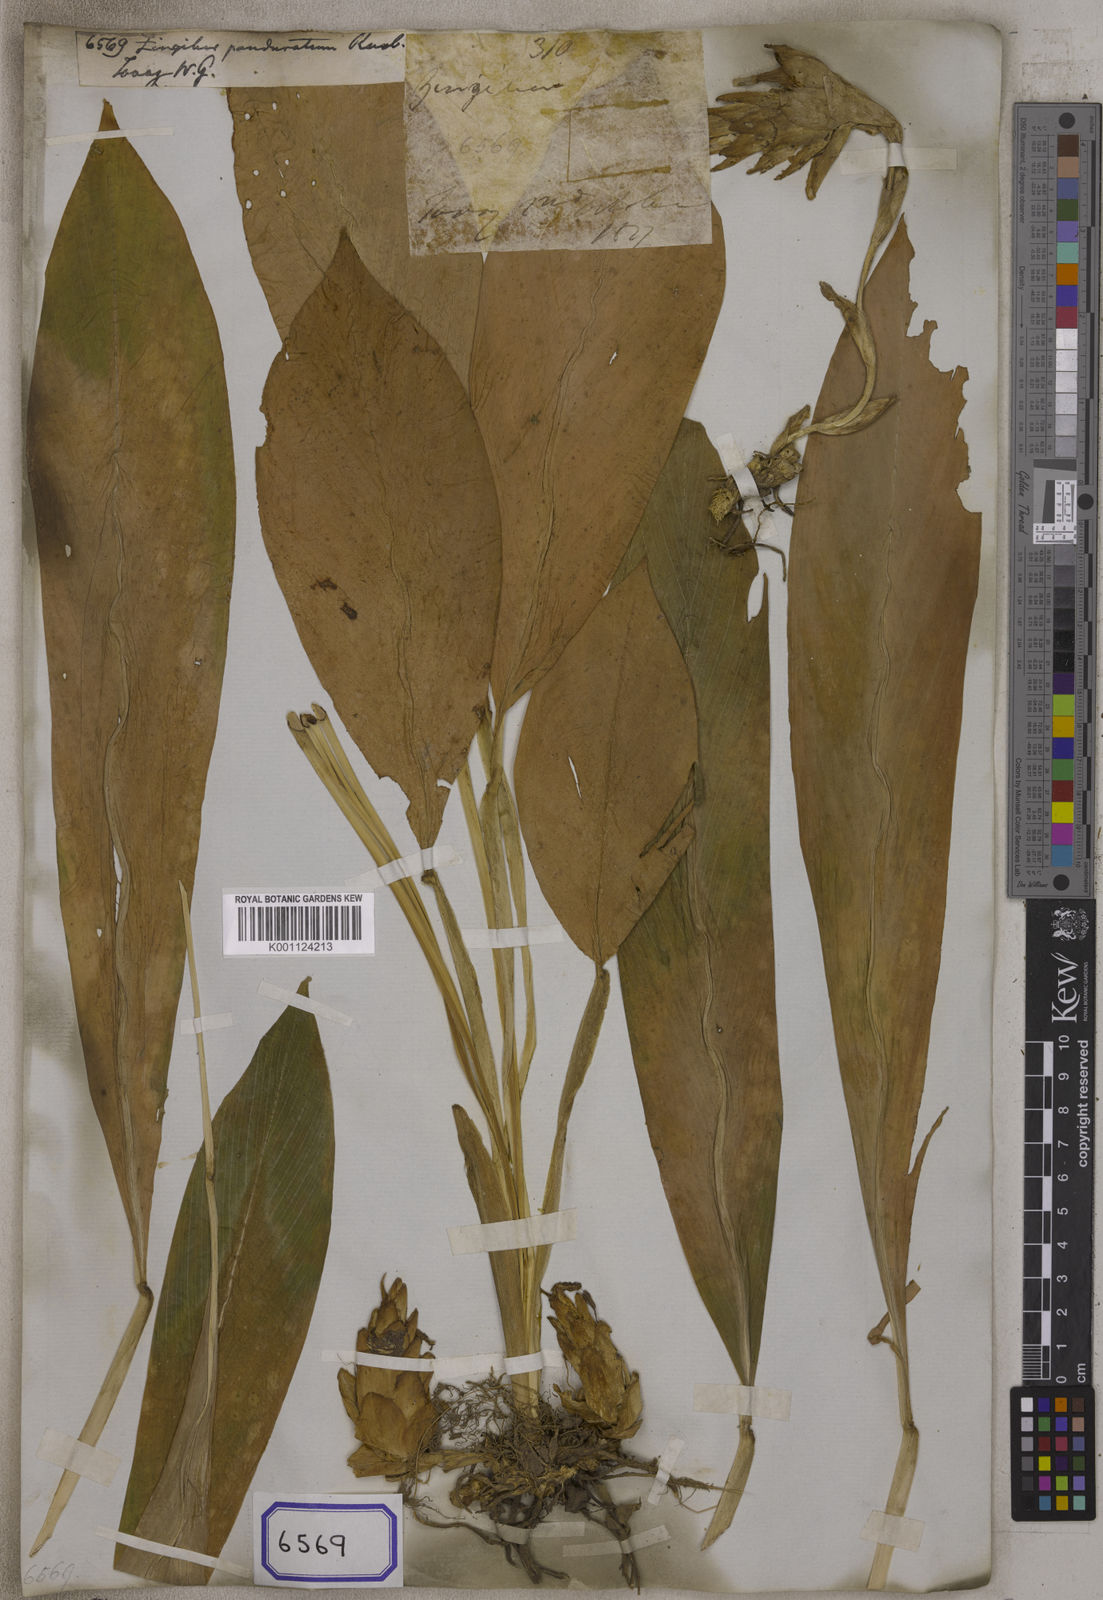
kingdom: Plantae
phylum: Tracheophyta
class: Liliopsida
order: Zingiberales
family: Zingiberaceae
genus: Zingiber
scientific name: Zingiber panduratum
